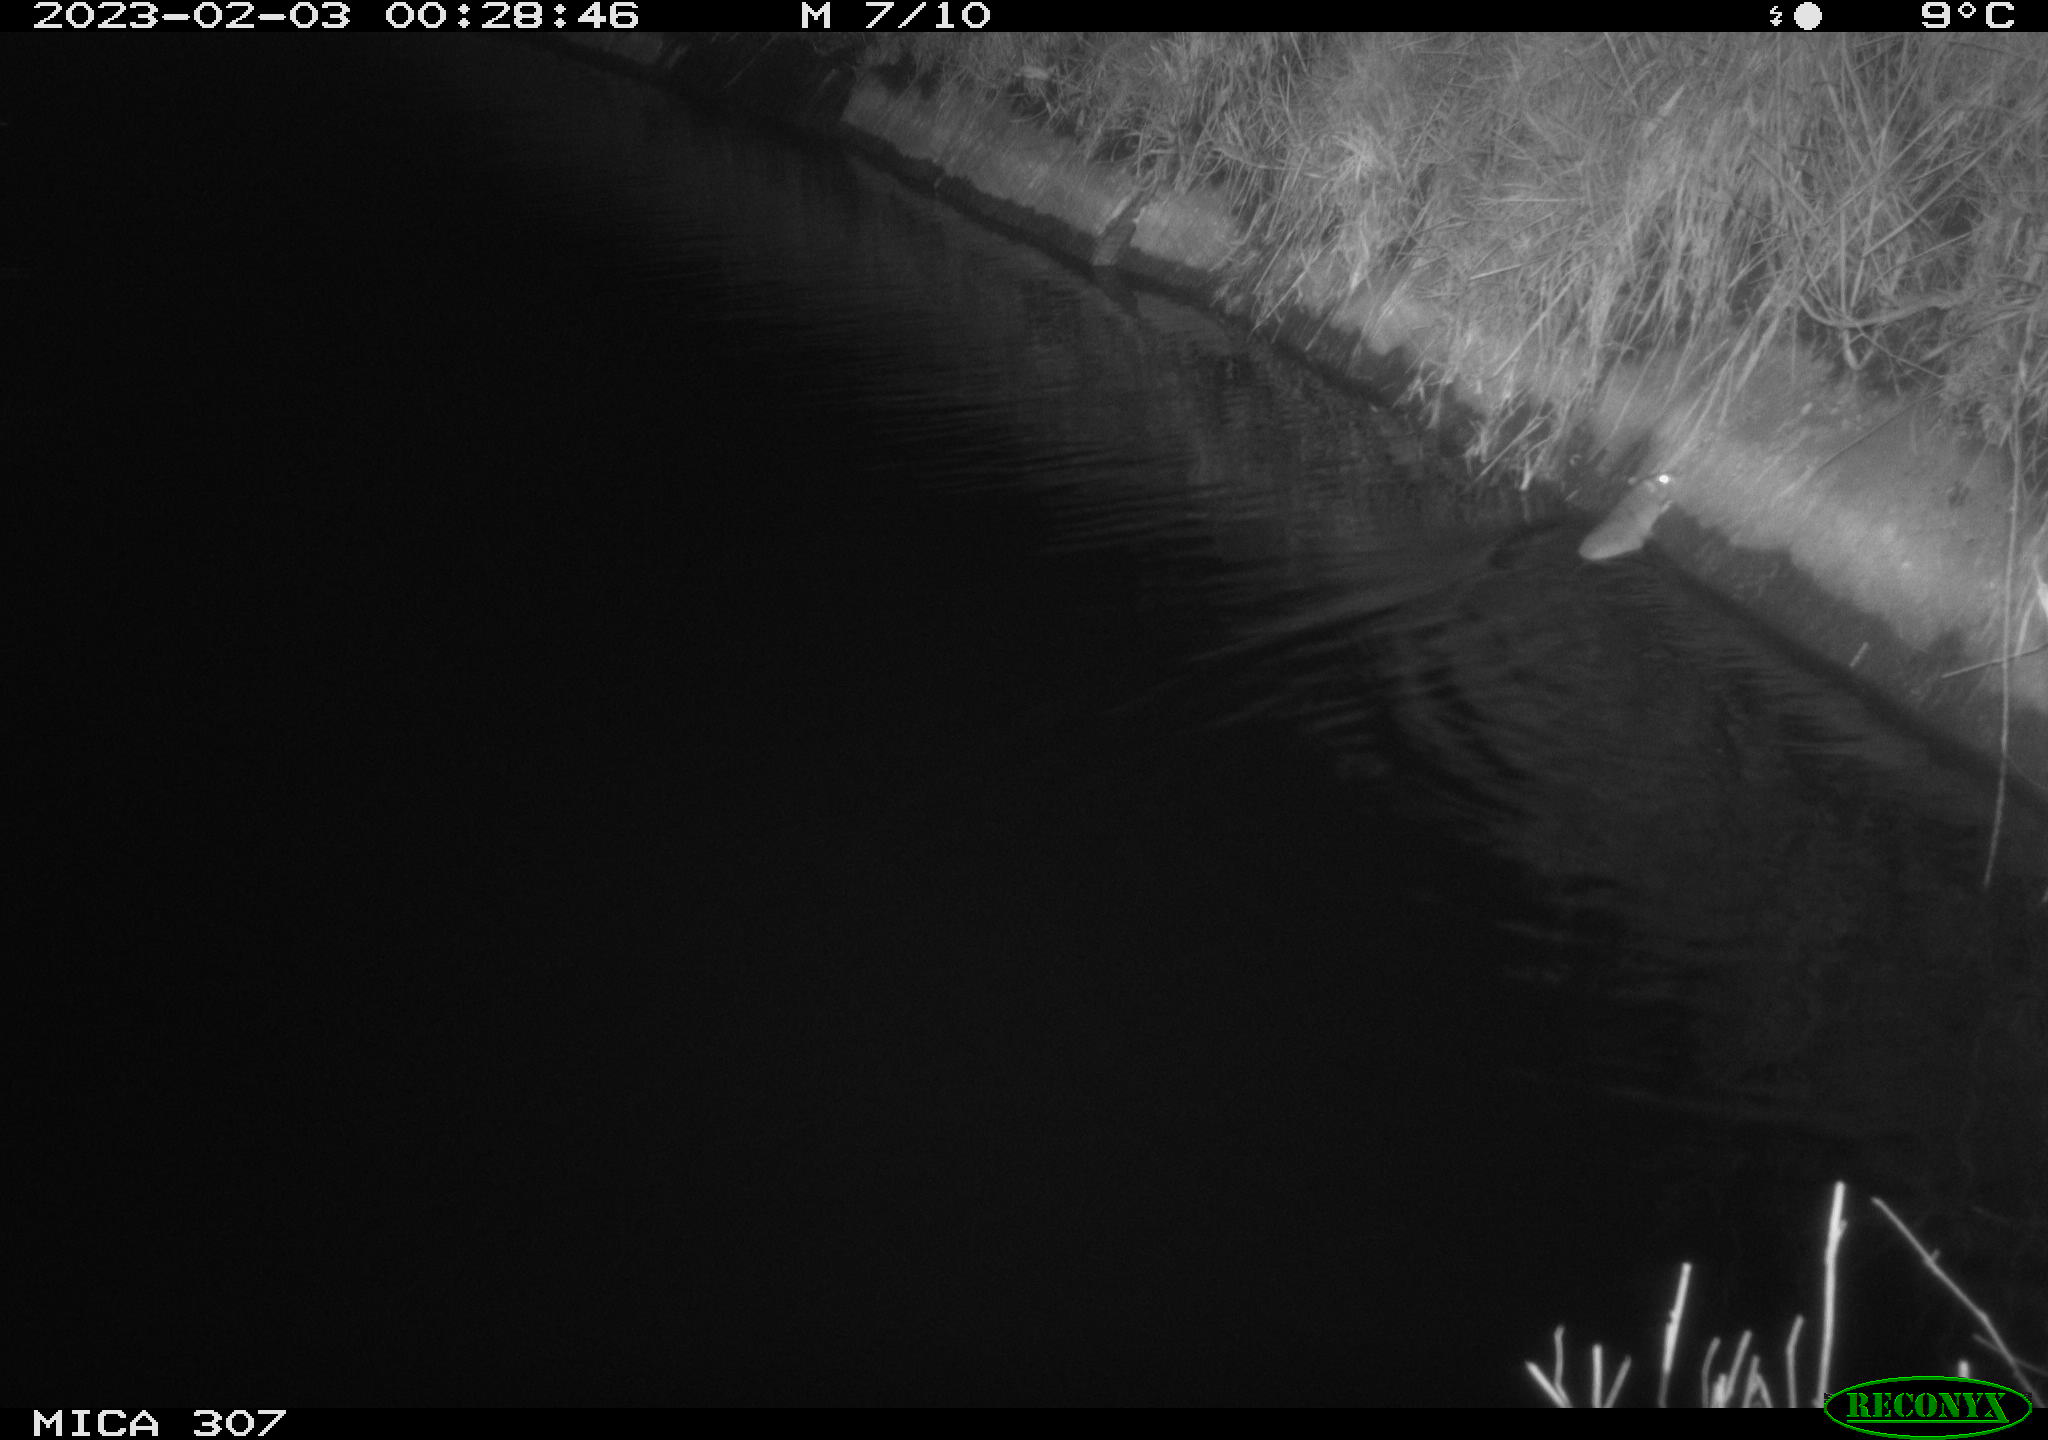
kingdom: Animalia
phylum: Chordata
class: Mammalia
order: Rodentia
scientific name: Rodentia
